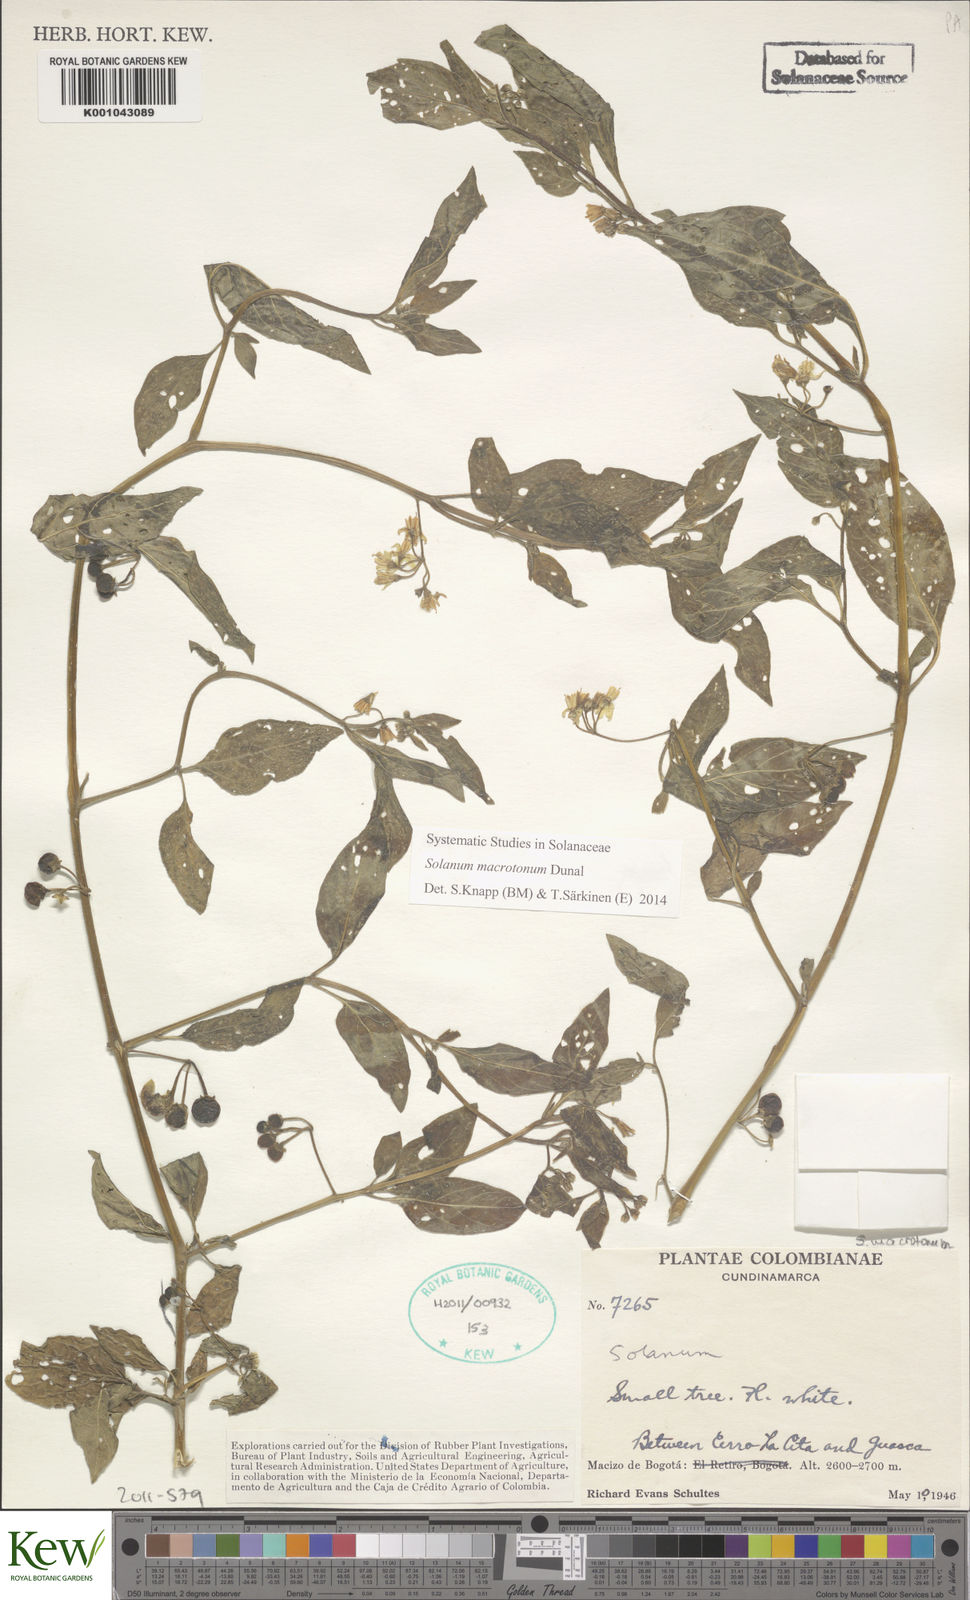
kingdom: Plantae
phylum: Tracheophyta
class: Magnoliopsida
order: Solanales
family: Solanaceae
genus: Solanum
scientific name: Solanum macrotonum
